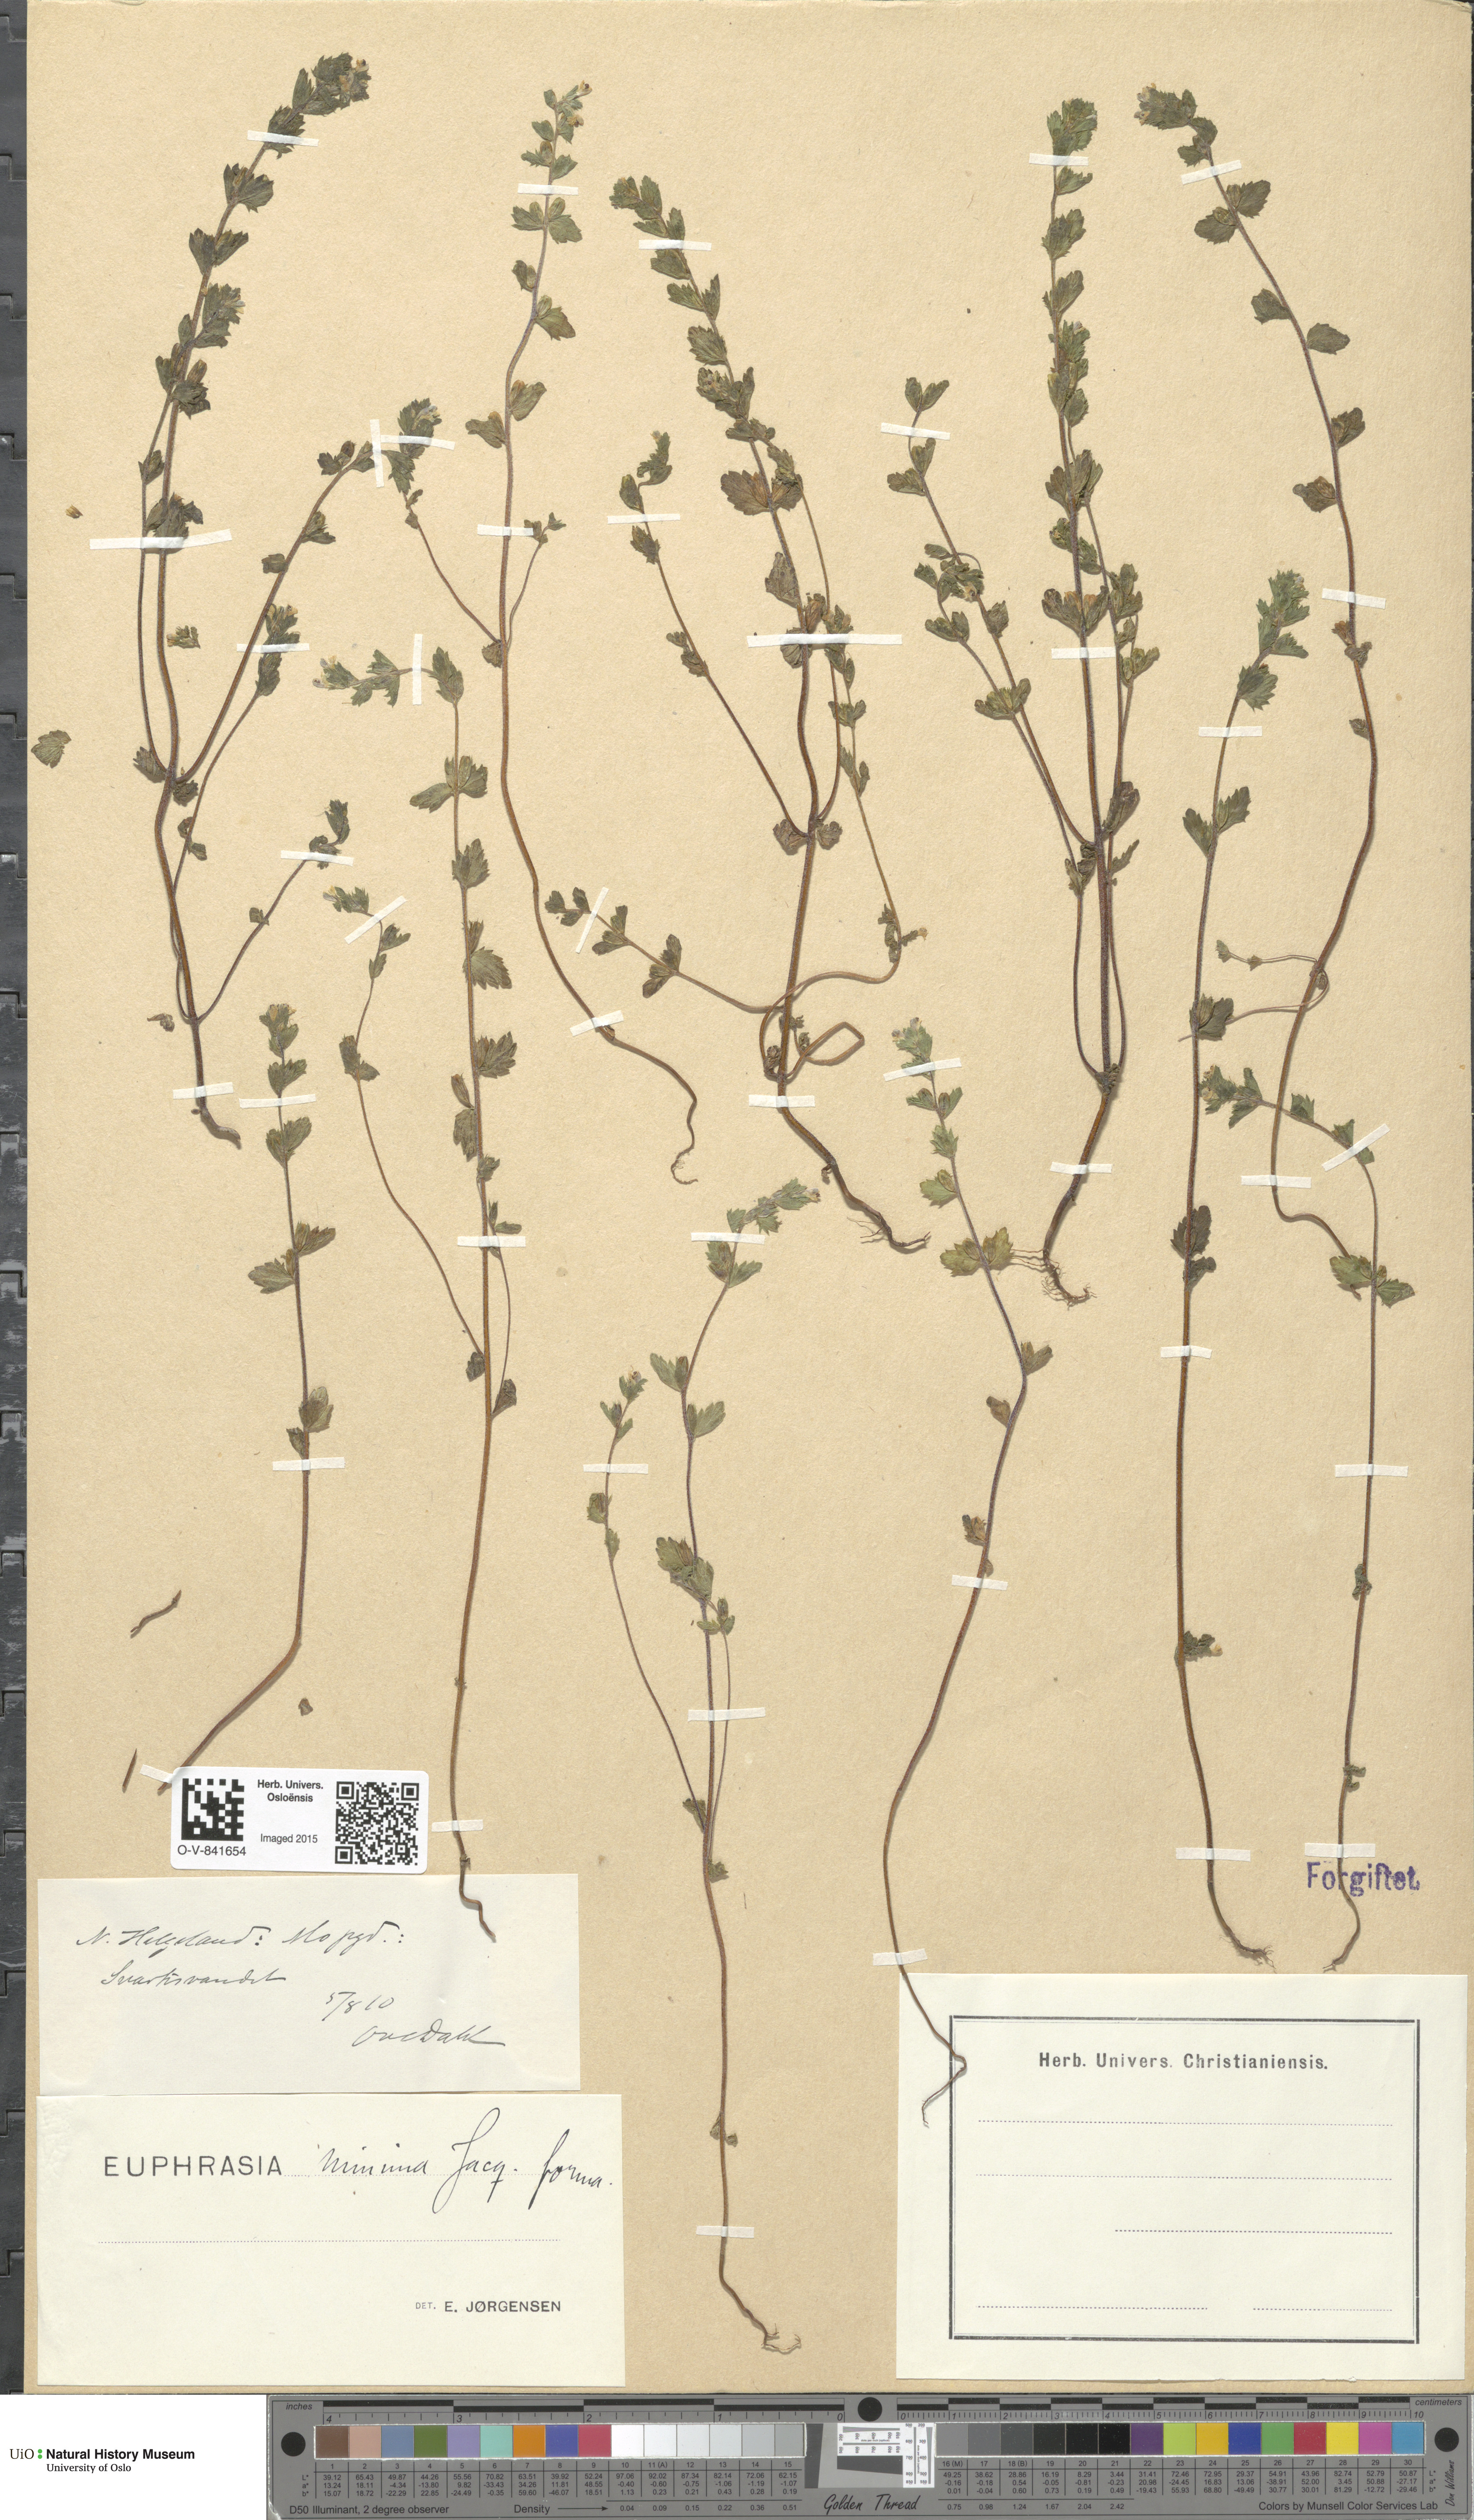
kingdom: Plantae
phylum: Tracheophyta
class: Magnoliopsida
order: Lamiales
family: Orobanchaceae
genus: Euphrasia
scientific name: Euphrasia wettsteinii
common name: Wettstein's eyebright
